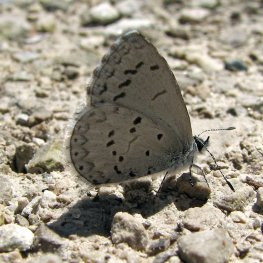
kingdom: Animalia
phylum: Arthropoda
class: Insecta
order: Lepidoptera
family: Lycaenidae
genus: Celastrina
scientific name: Celastrina serotina
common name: Cherry Gall Azure
